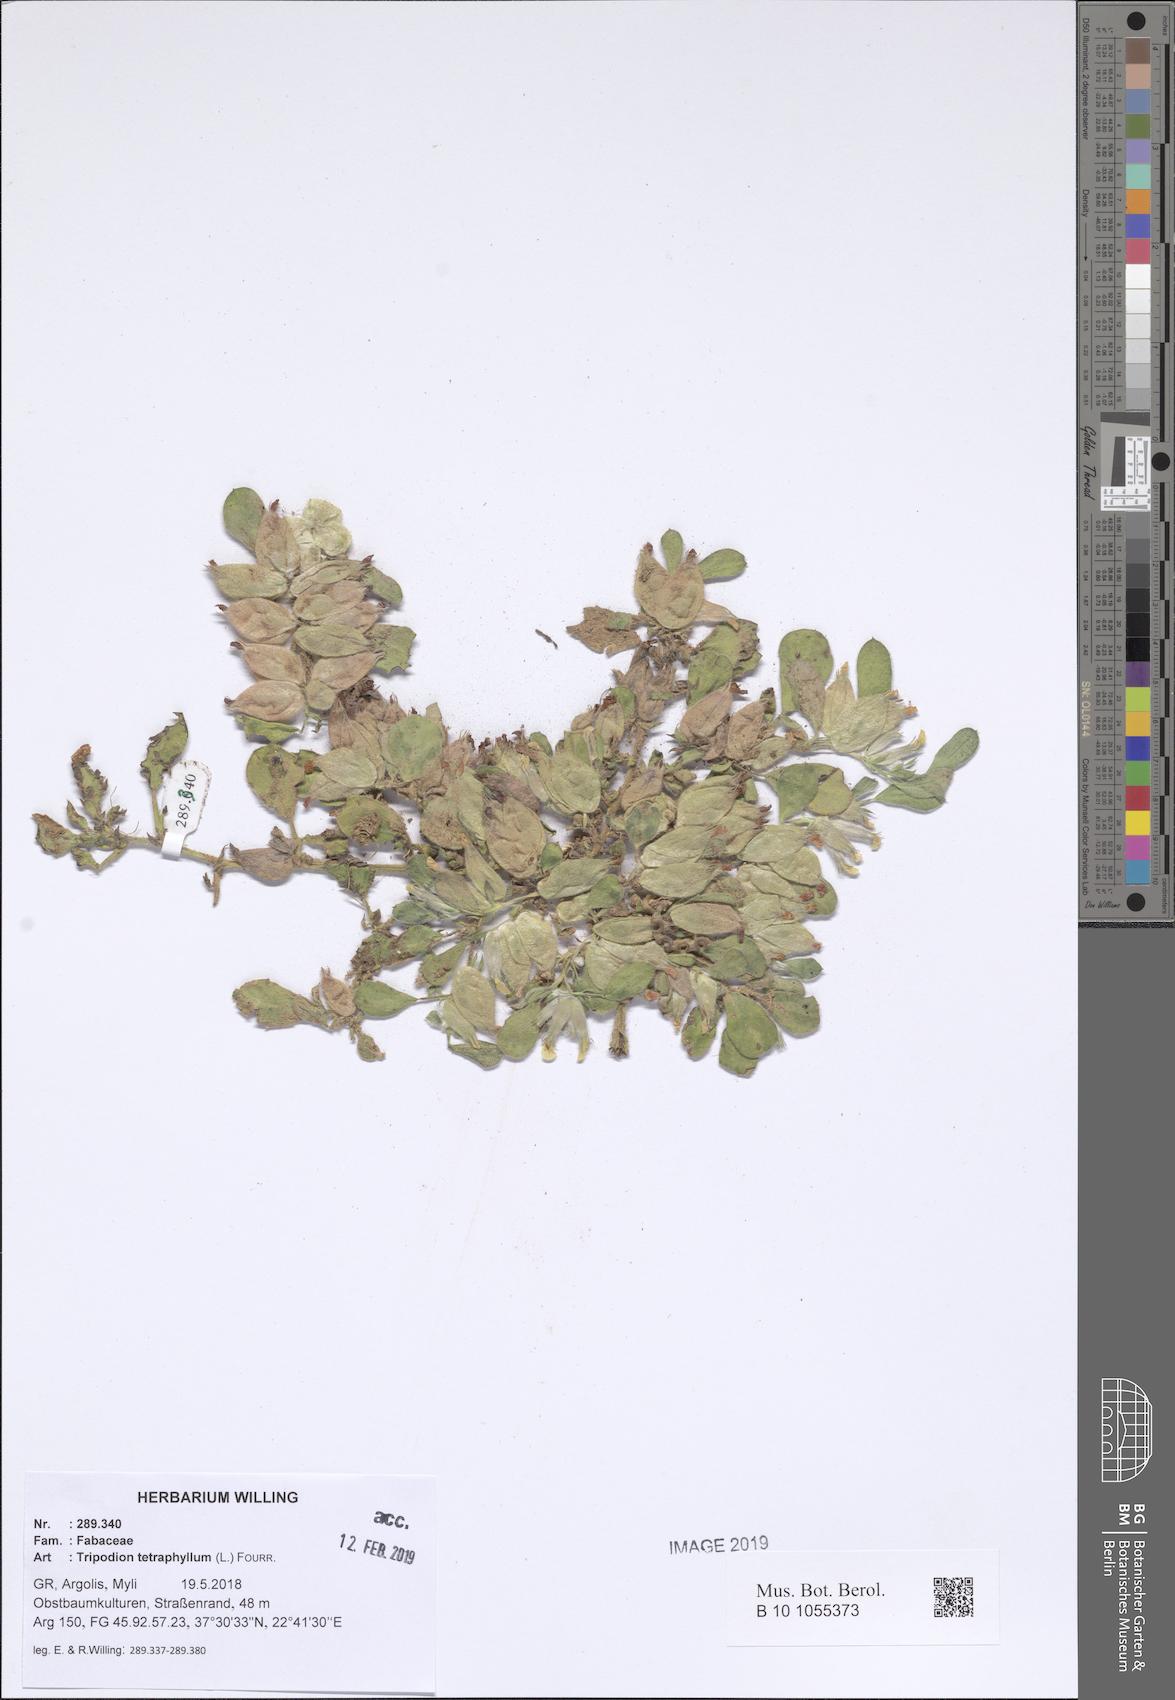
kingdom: Plantae
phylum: Tracheophyta
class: Magnoliopsida
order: Fabales
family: Fabaceae
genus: Tripodion
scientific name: Tripodion tetraphyllum
